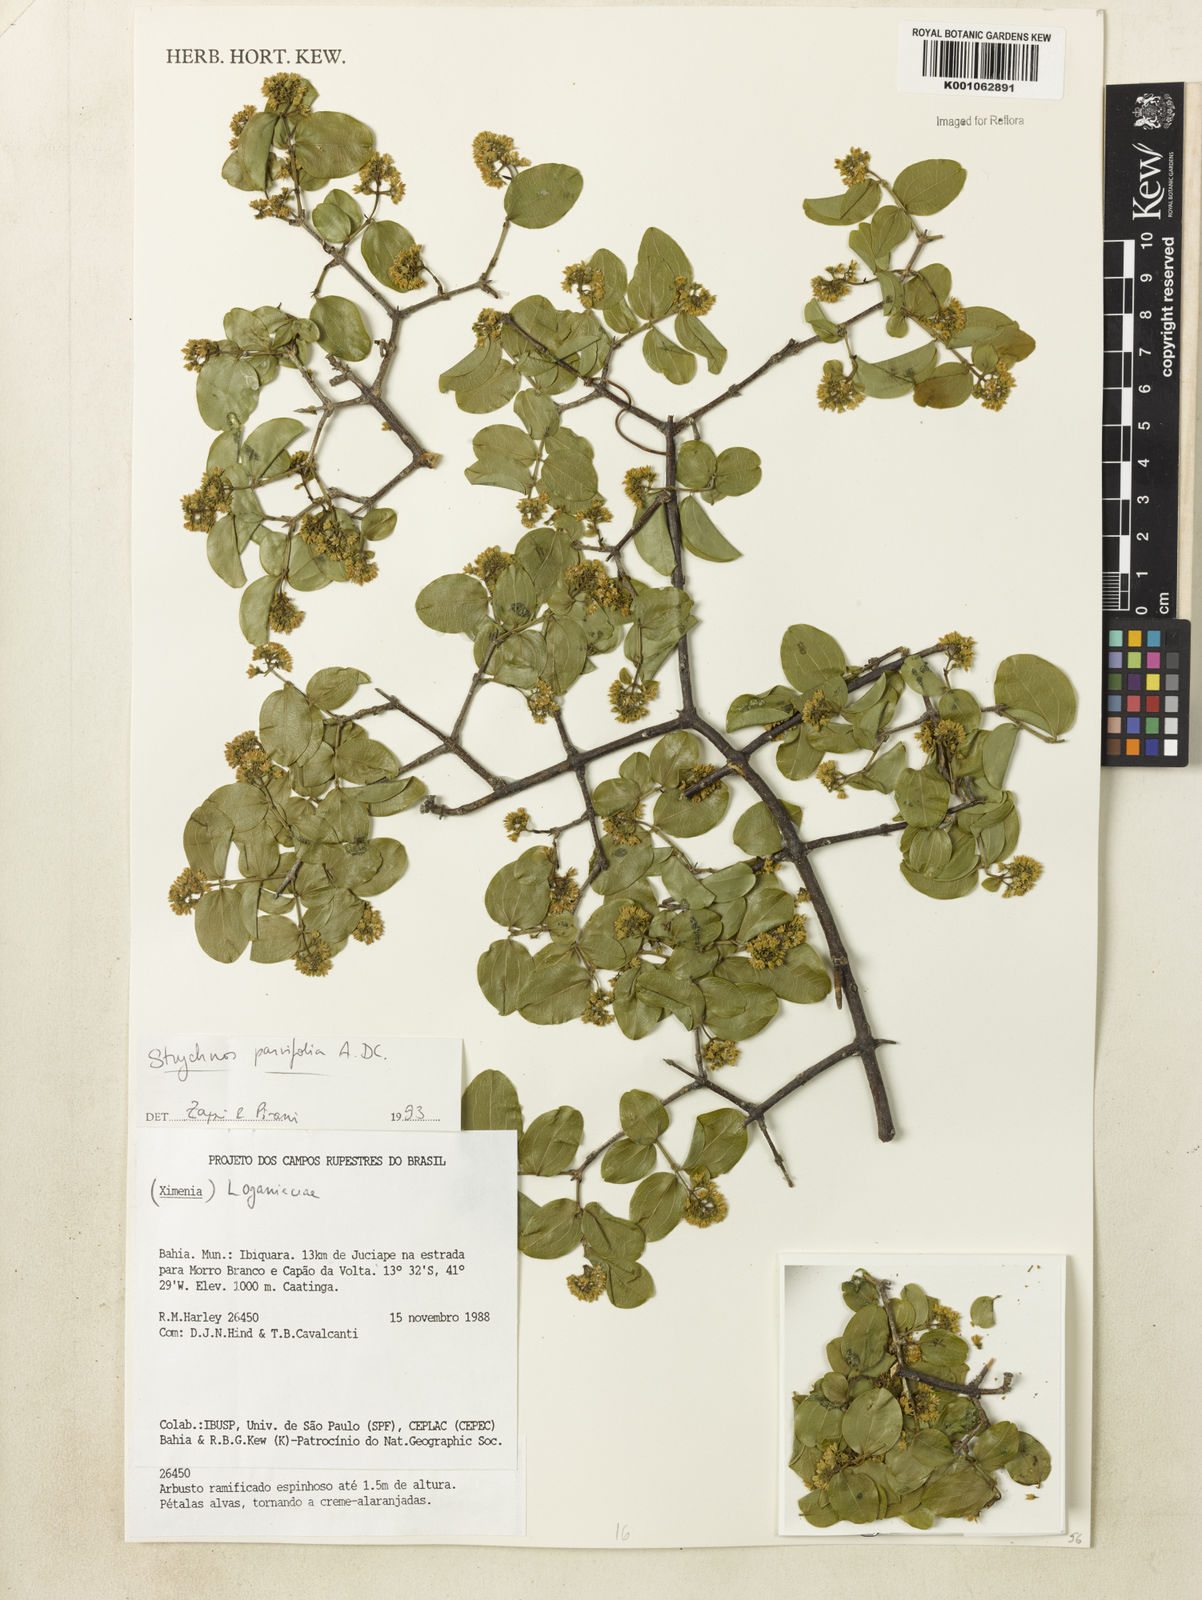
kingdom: Plantae
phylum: Tracheophyta
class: Magnoliopsida
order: Gentianales
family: Loganiaceae
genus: Strychnos
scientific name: Strychnos parvifolia
